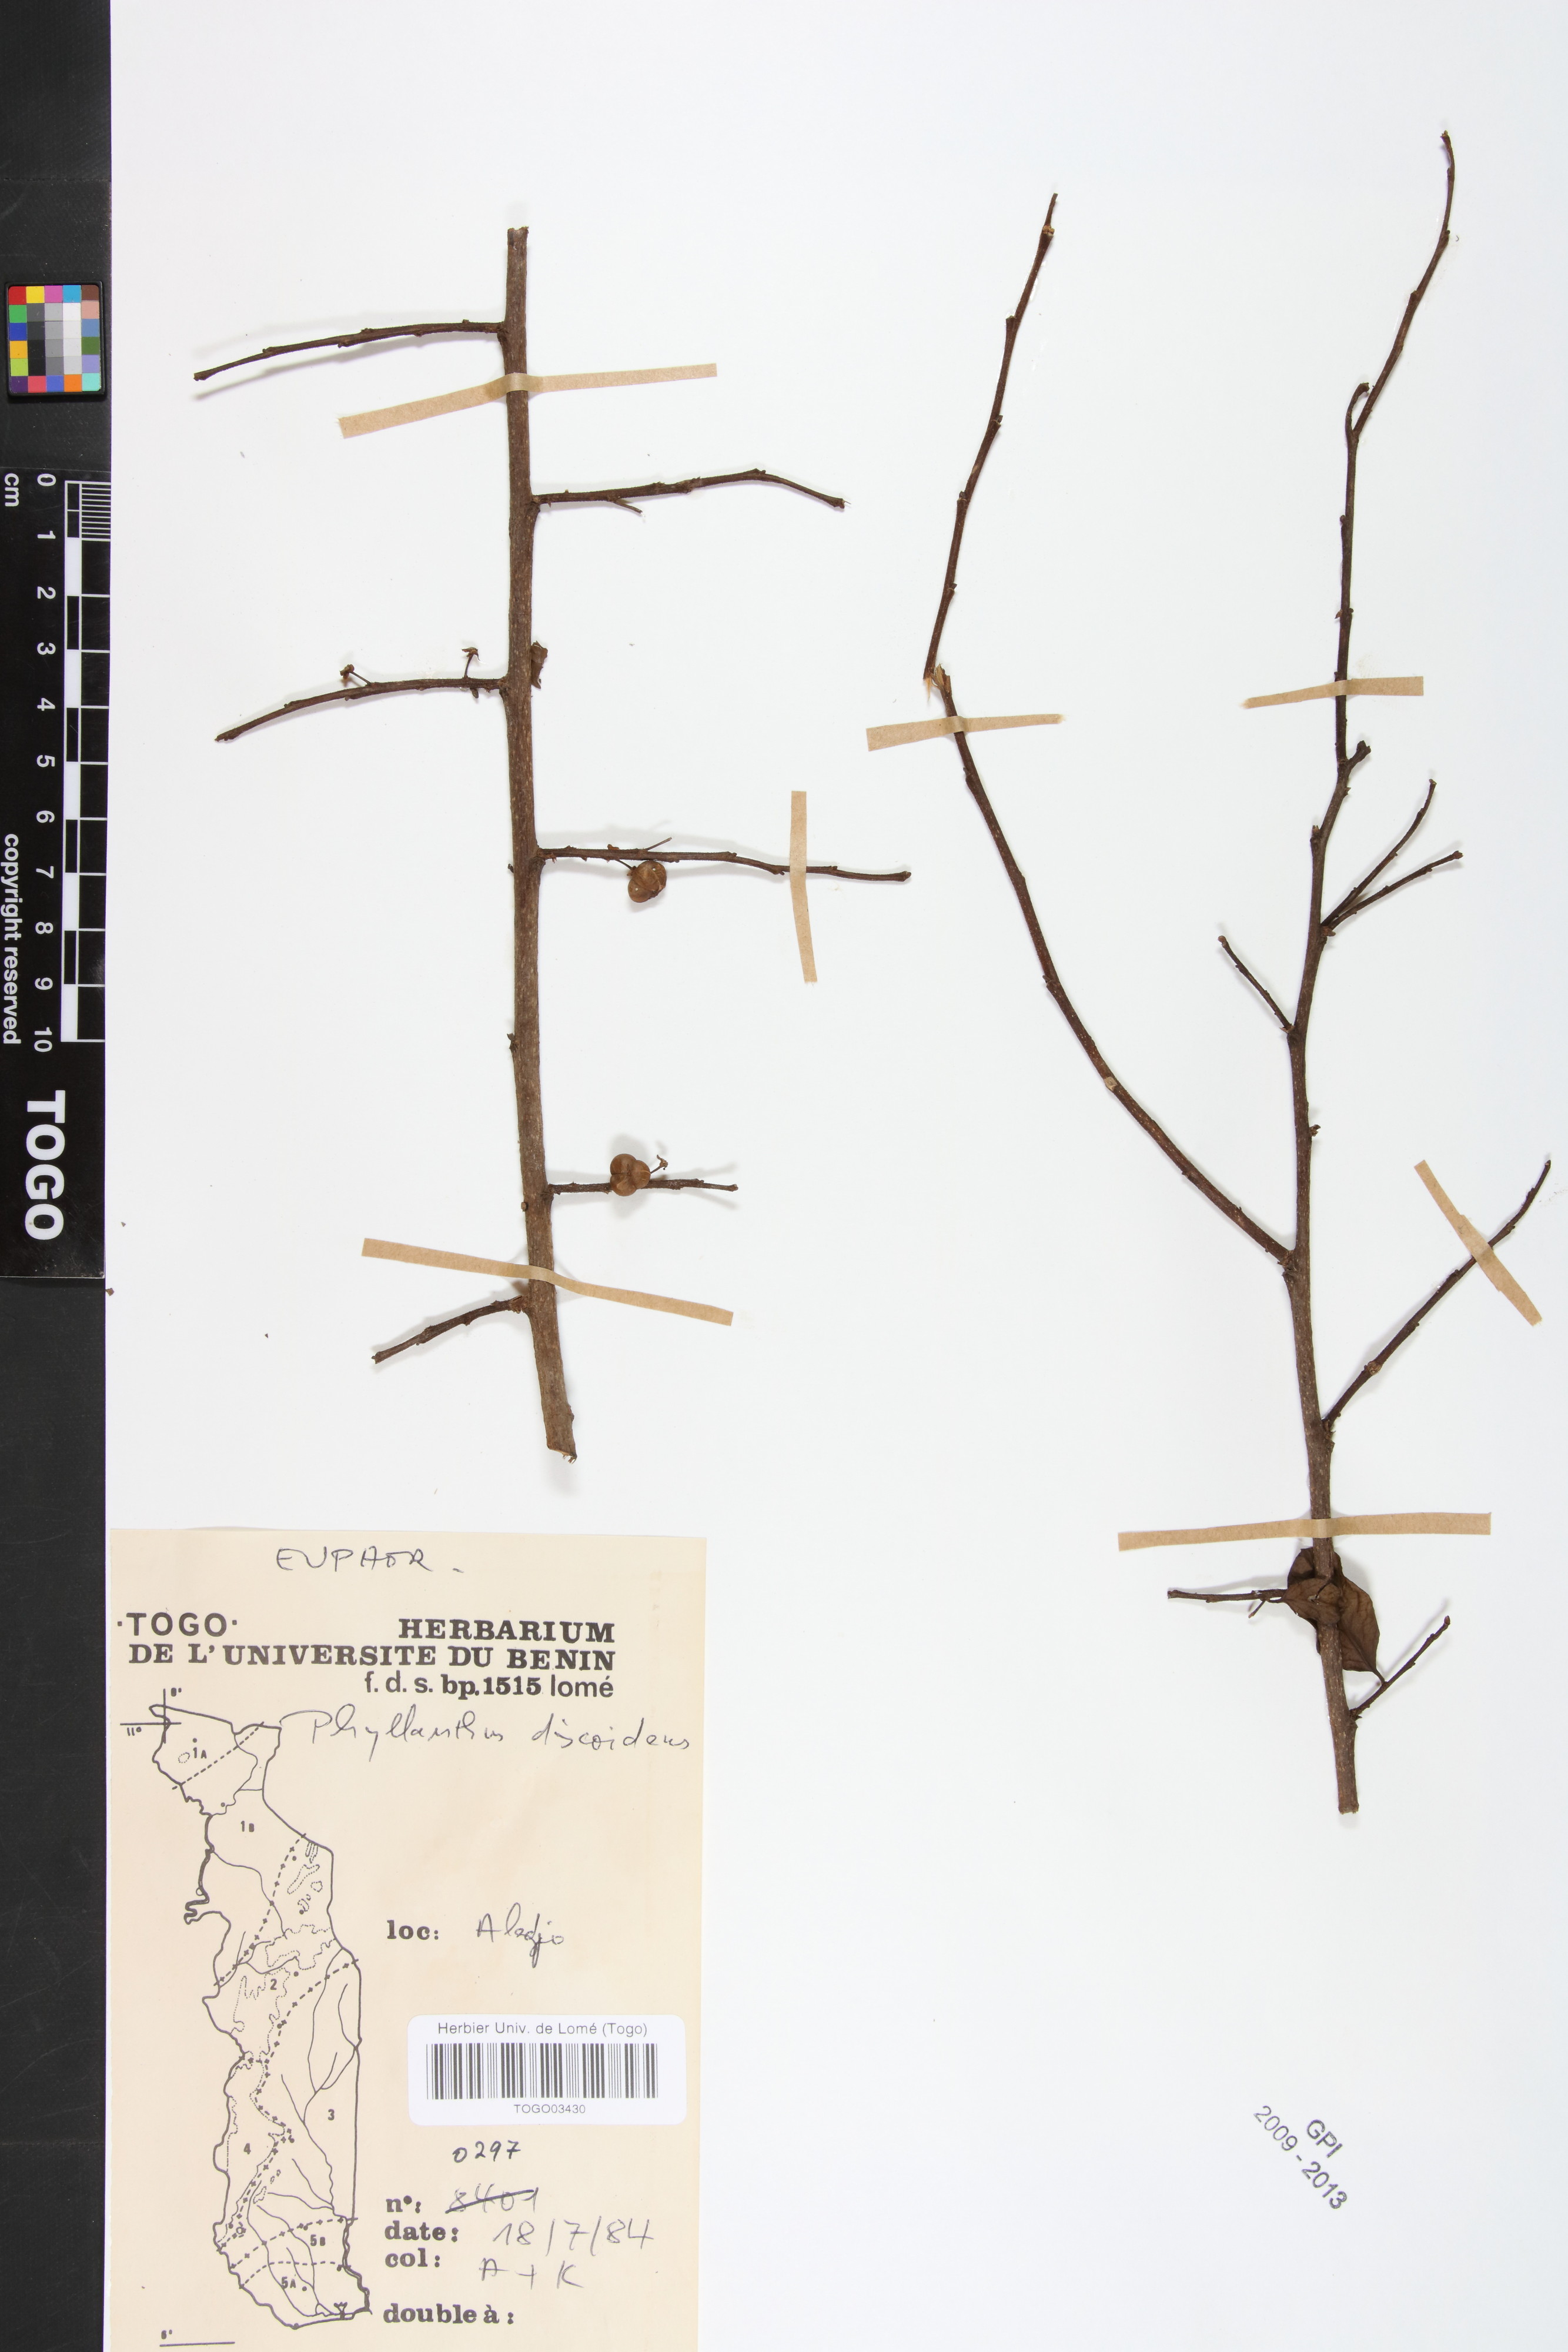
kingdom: Plantae
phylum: Tracheophyta
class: Magnoliopsida
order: Malpighiales
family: Phyllanthaceae
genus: Margaritaria
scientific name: Margaritaria discoidea
